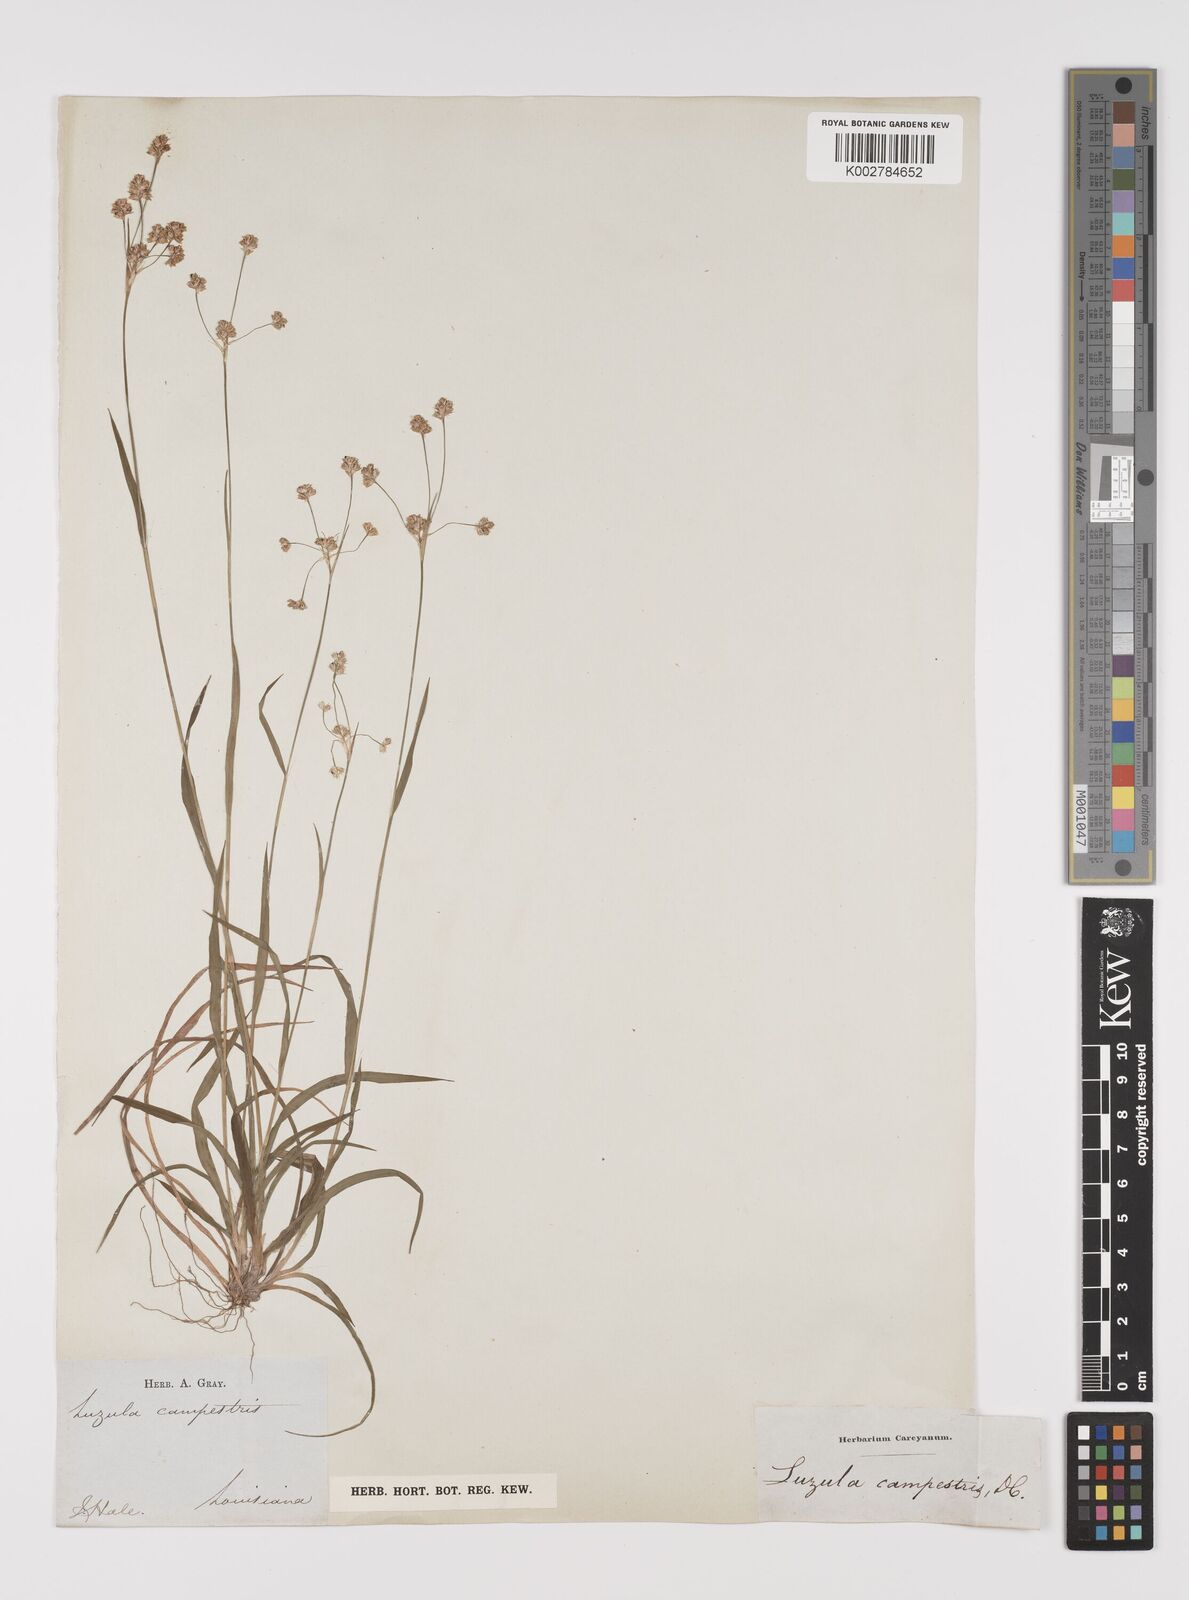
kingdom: Plantae
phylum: Tracheophyta
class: Liliopsida
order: Poales
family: Juncaceae
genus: Luzula
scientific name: Luzula campestris
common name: Field wood-rush
